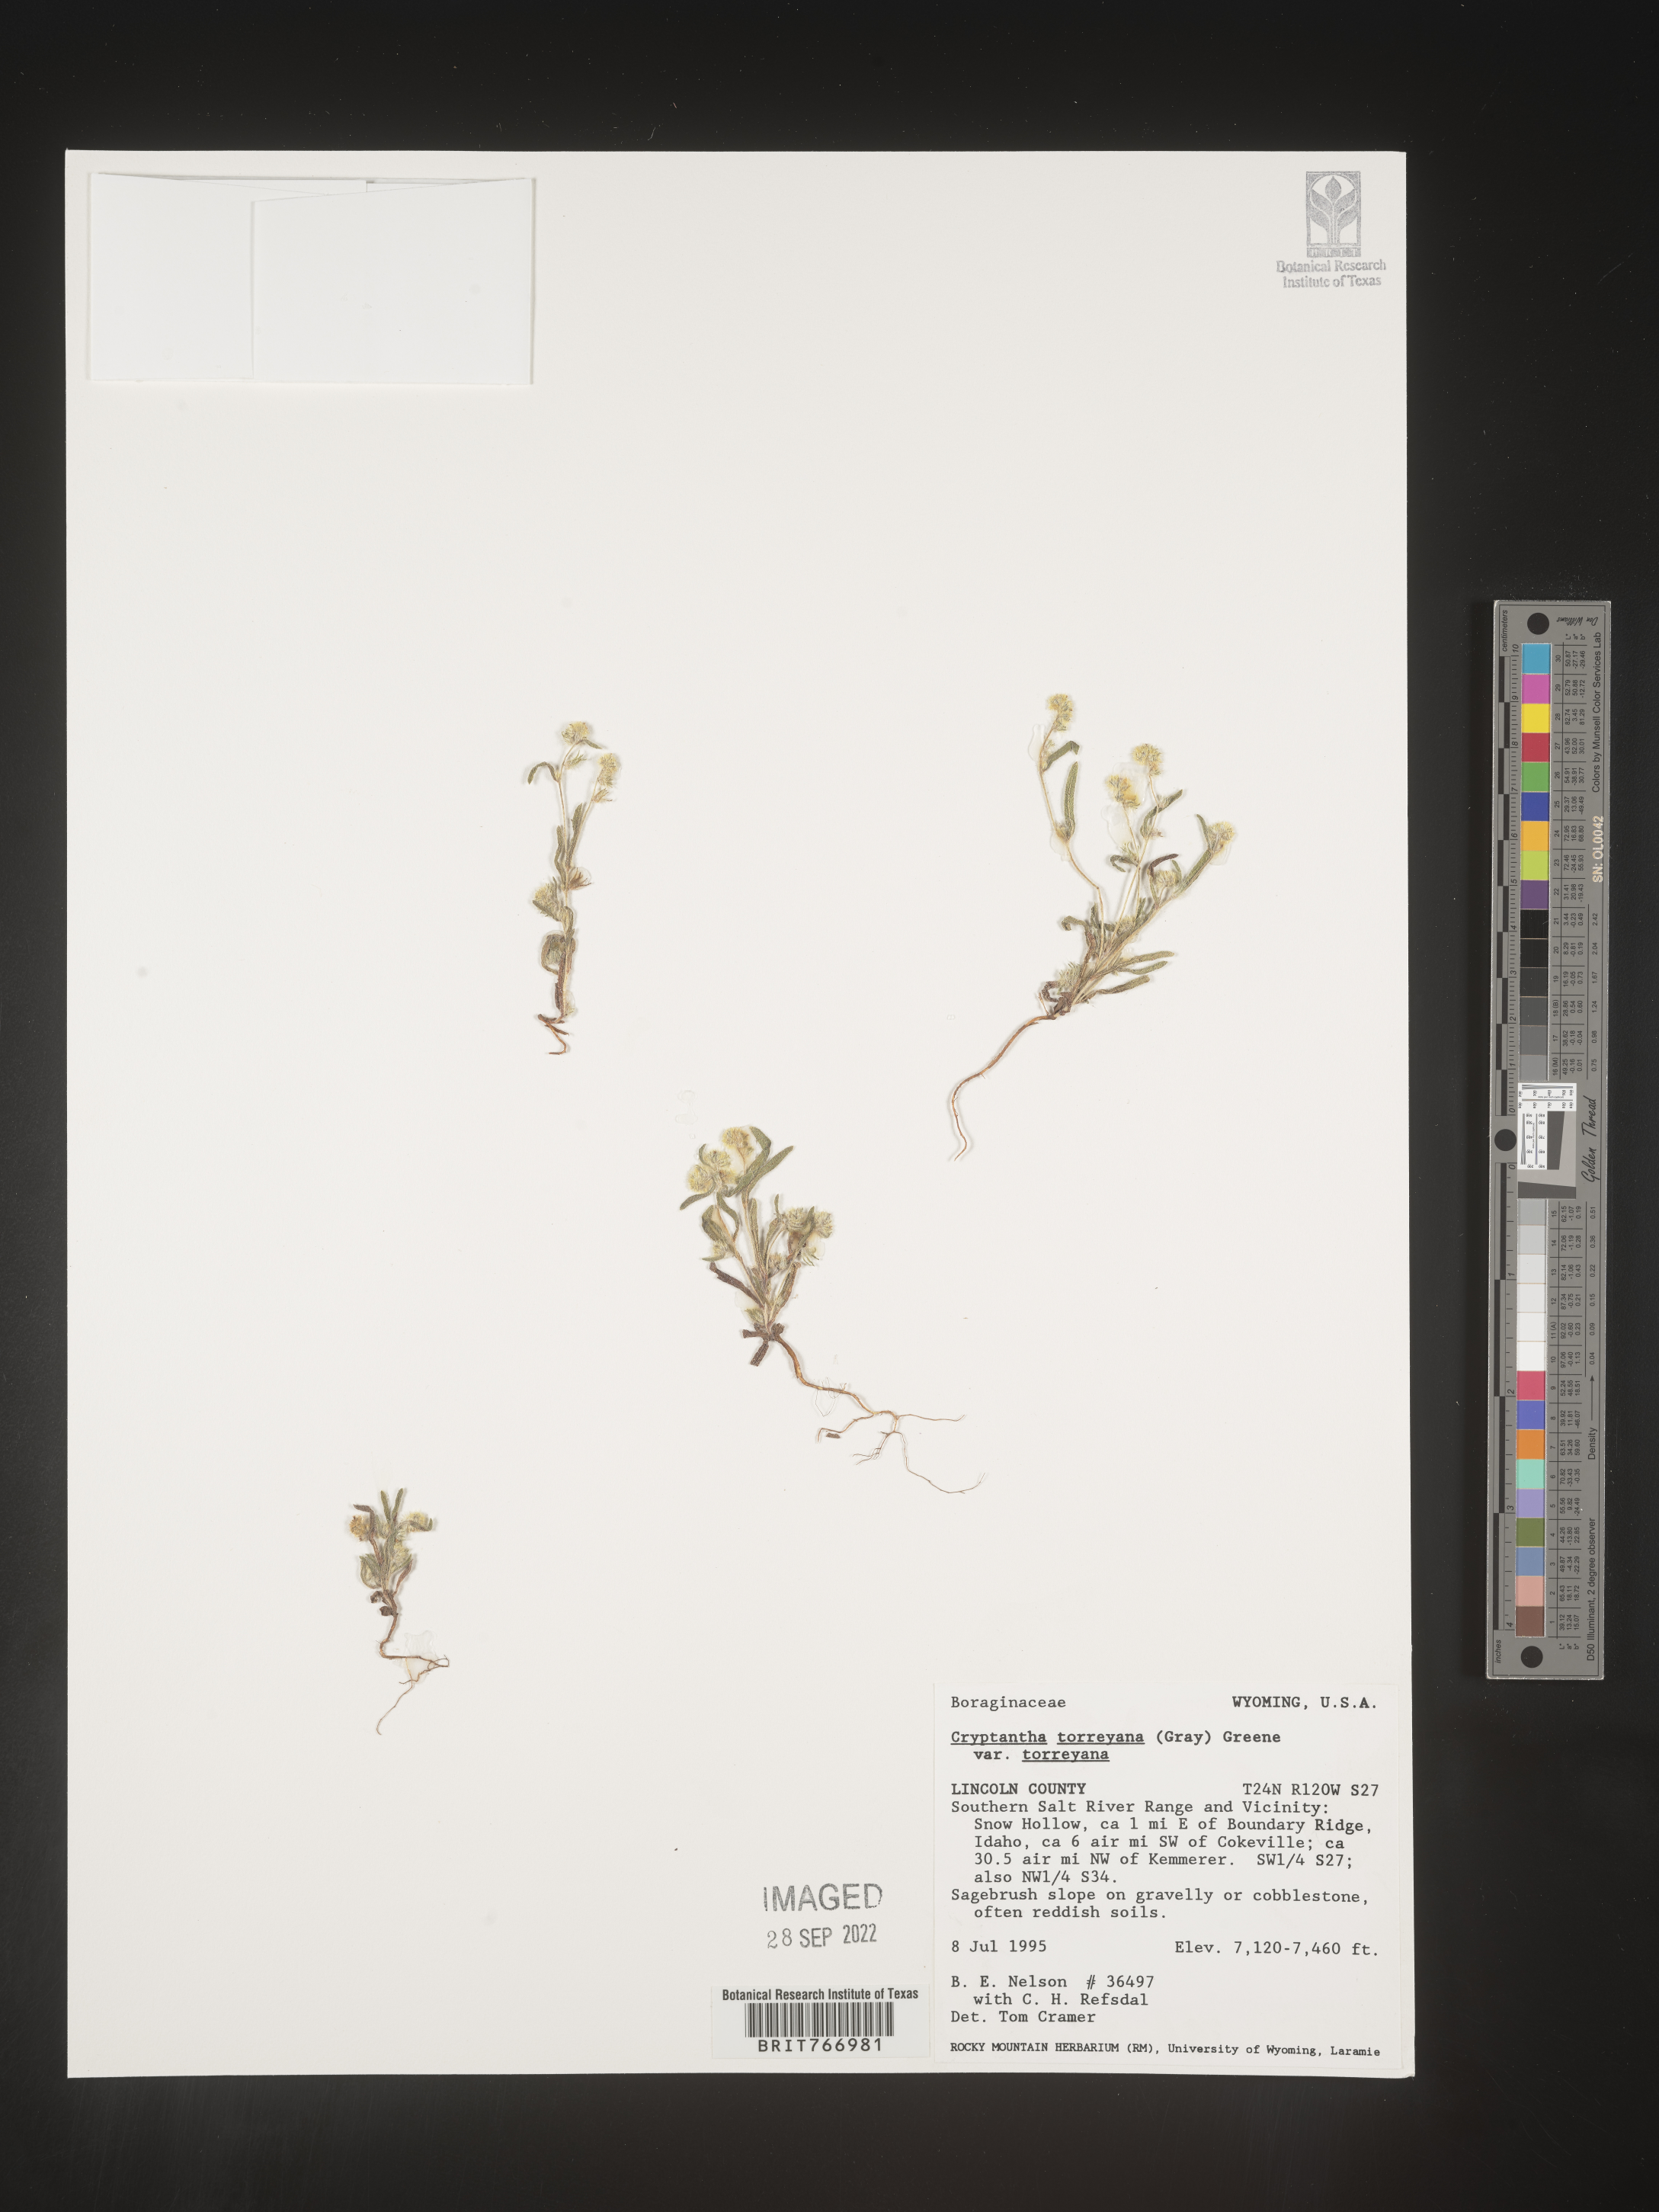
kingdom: Plantae
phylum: Tracheophyta
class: Magnoliopsida
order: Boraginales
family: Boraginaceae
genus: Cryptantha
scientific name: Cryptantha
